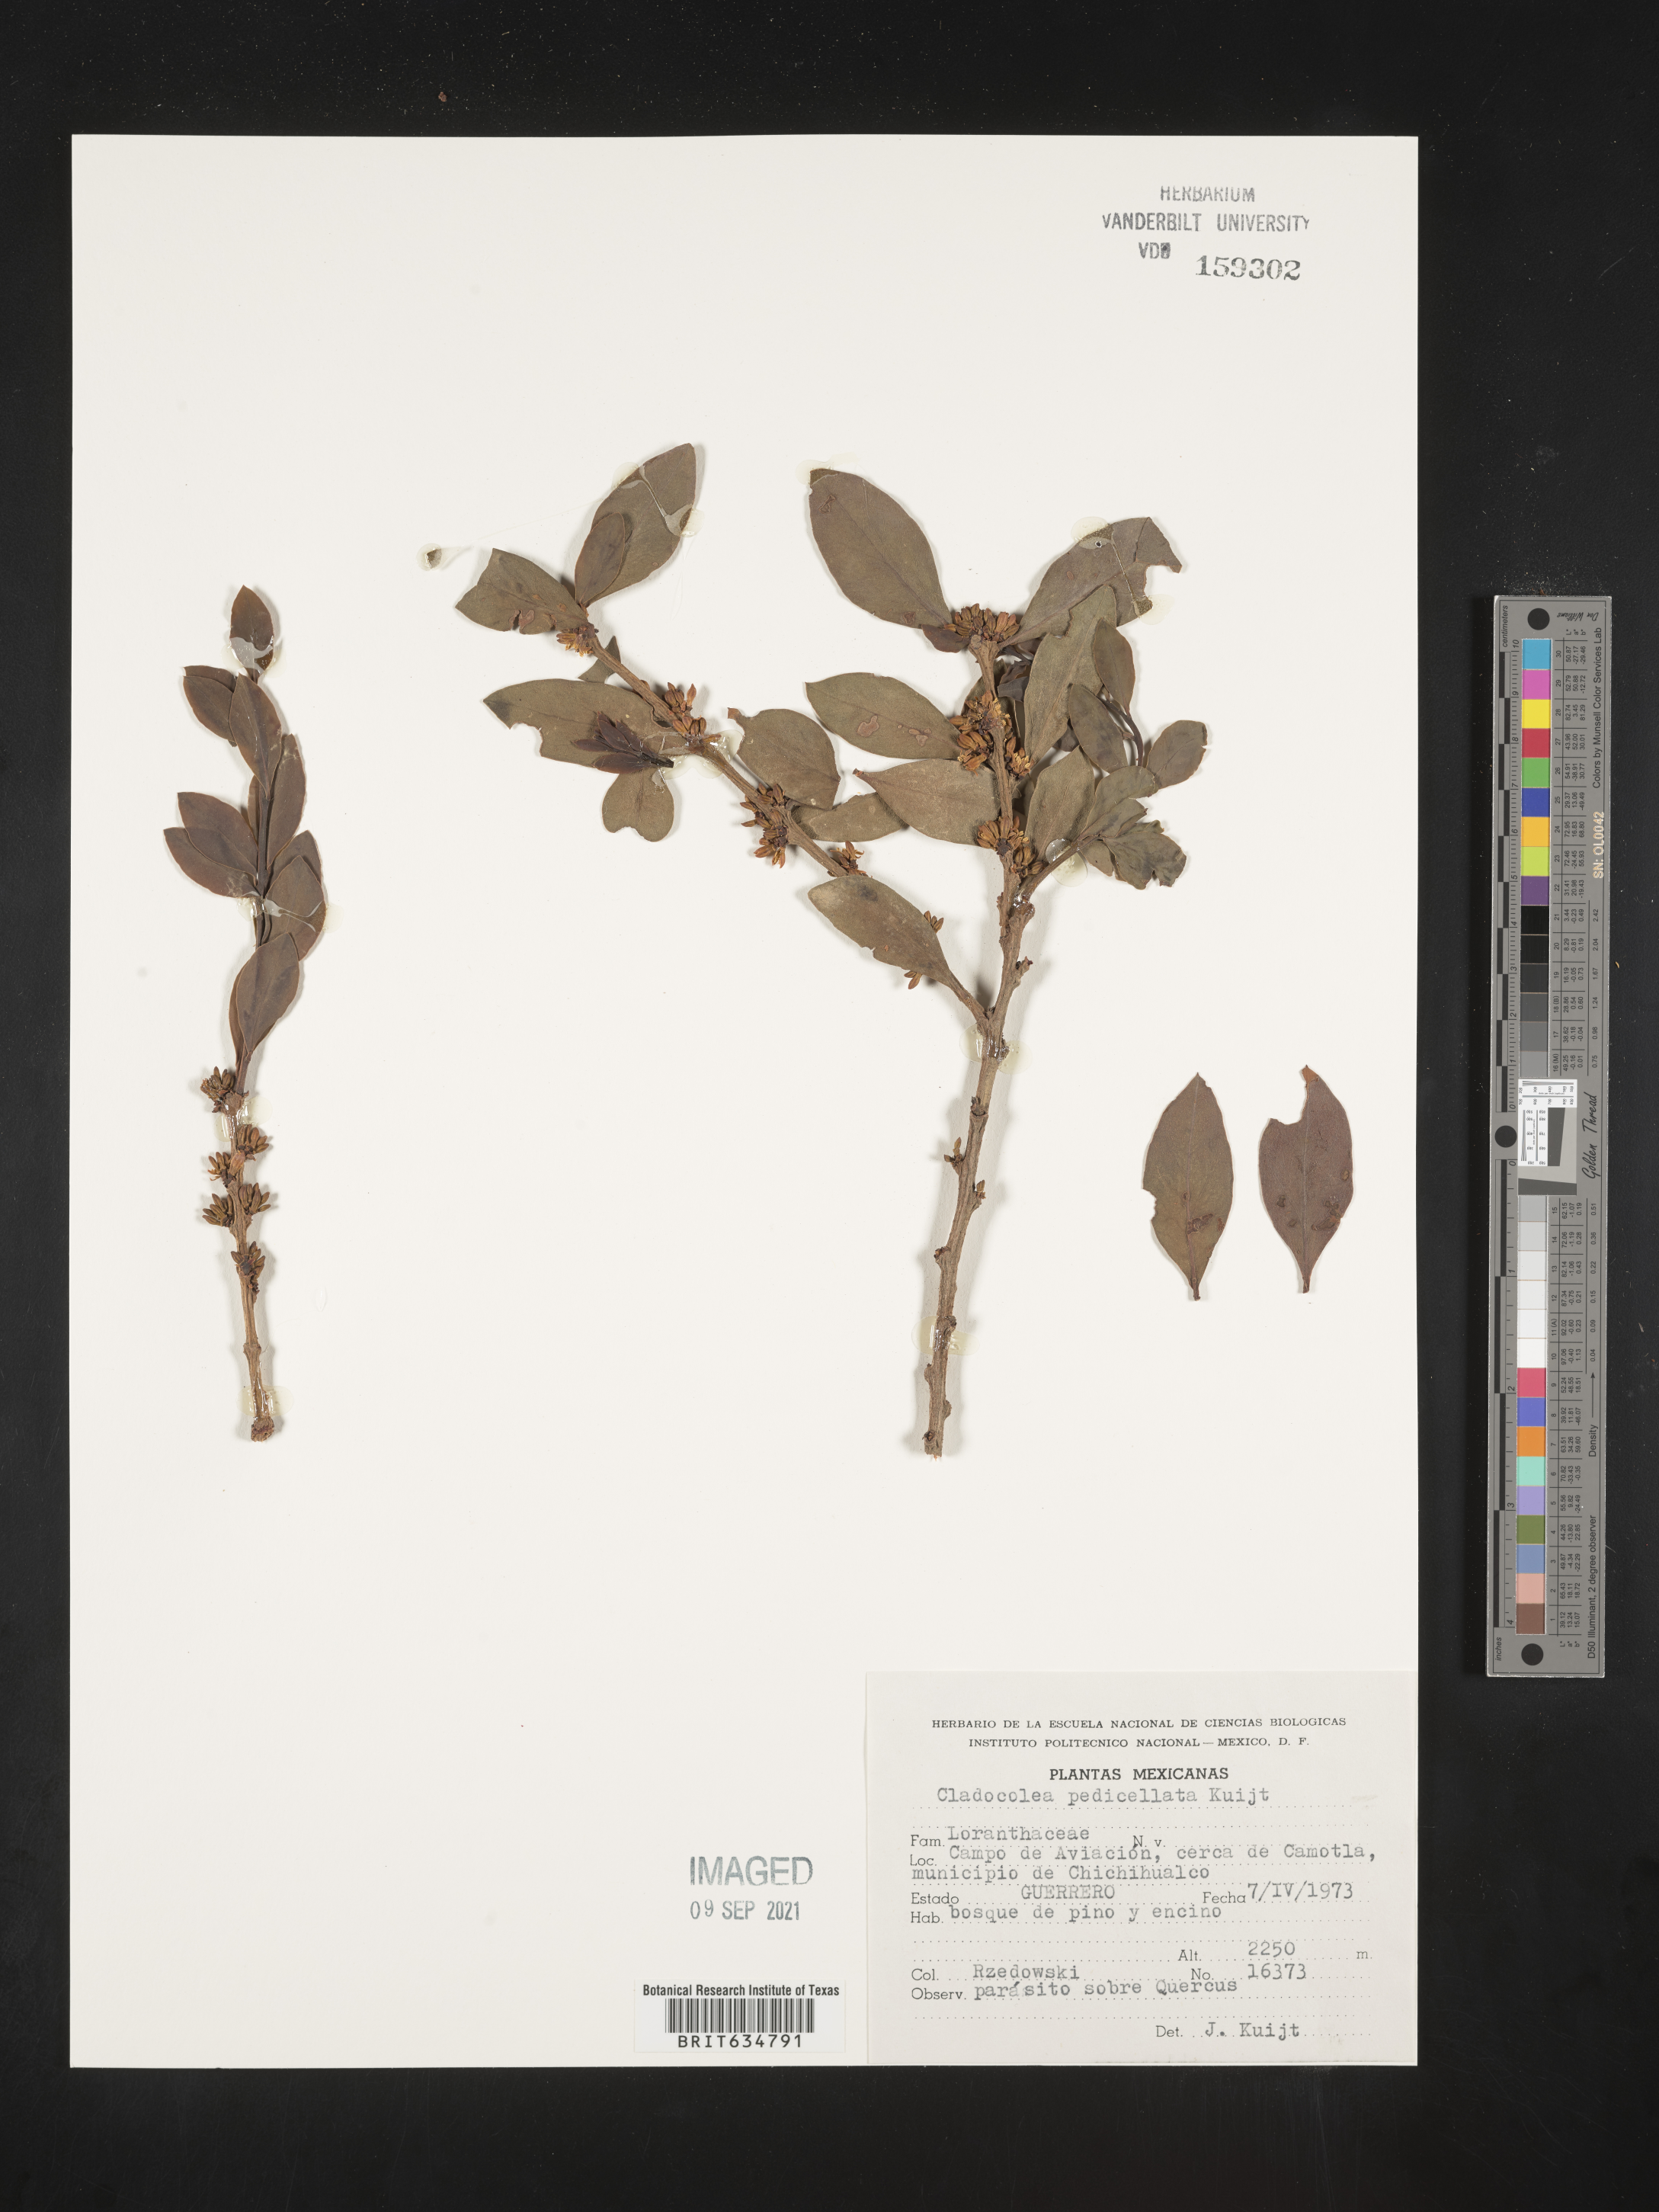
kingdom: Plantae
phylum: Tracheophyta
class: Magnoliopsida
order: Santalales
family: Loranthaceae
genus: Cladocolea
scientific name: Cladocolea
